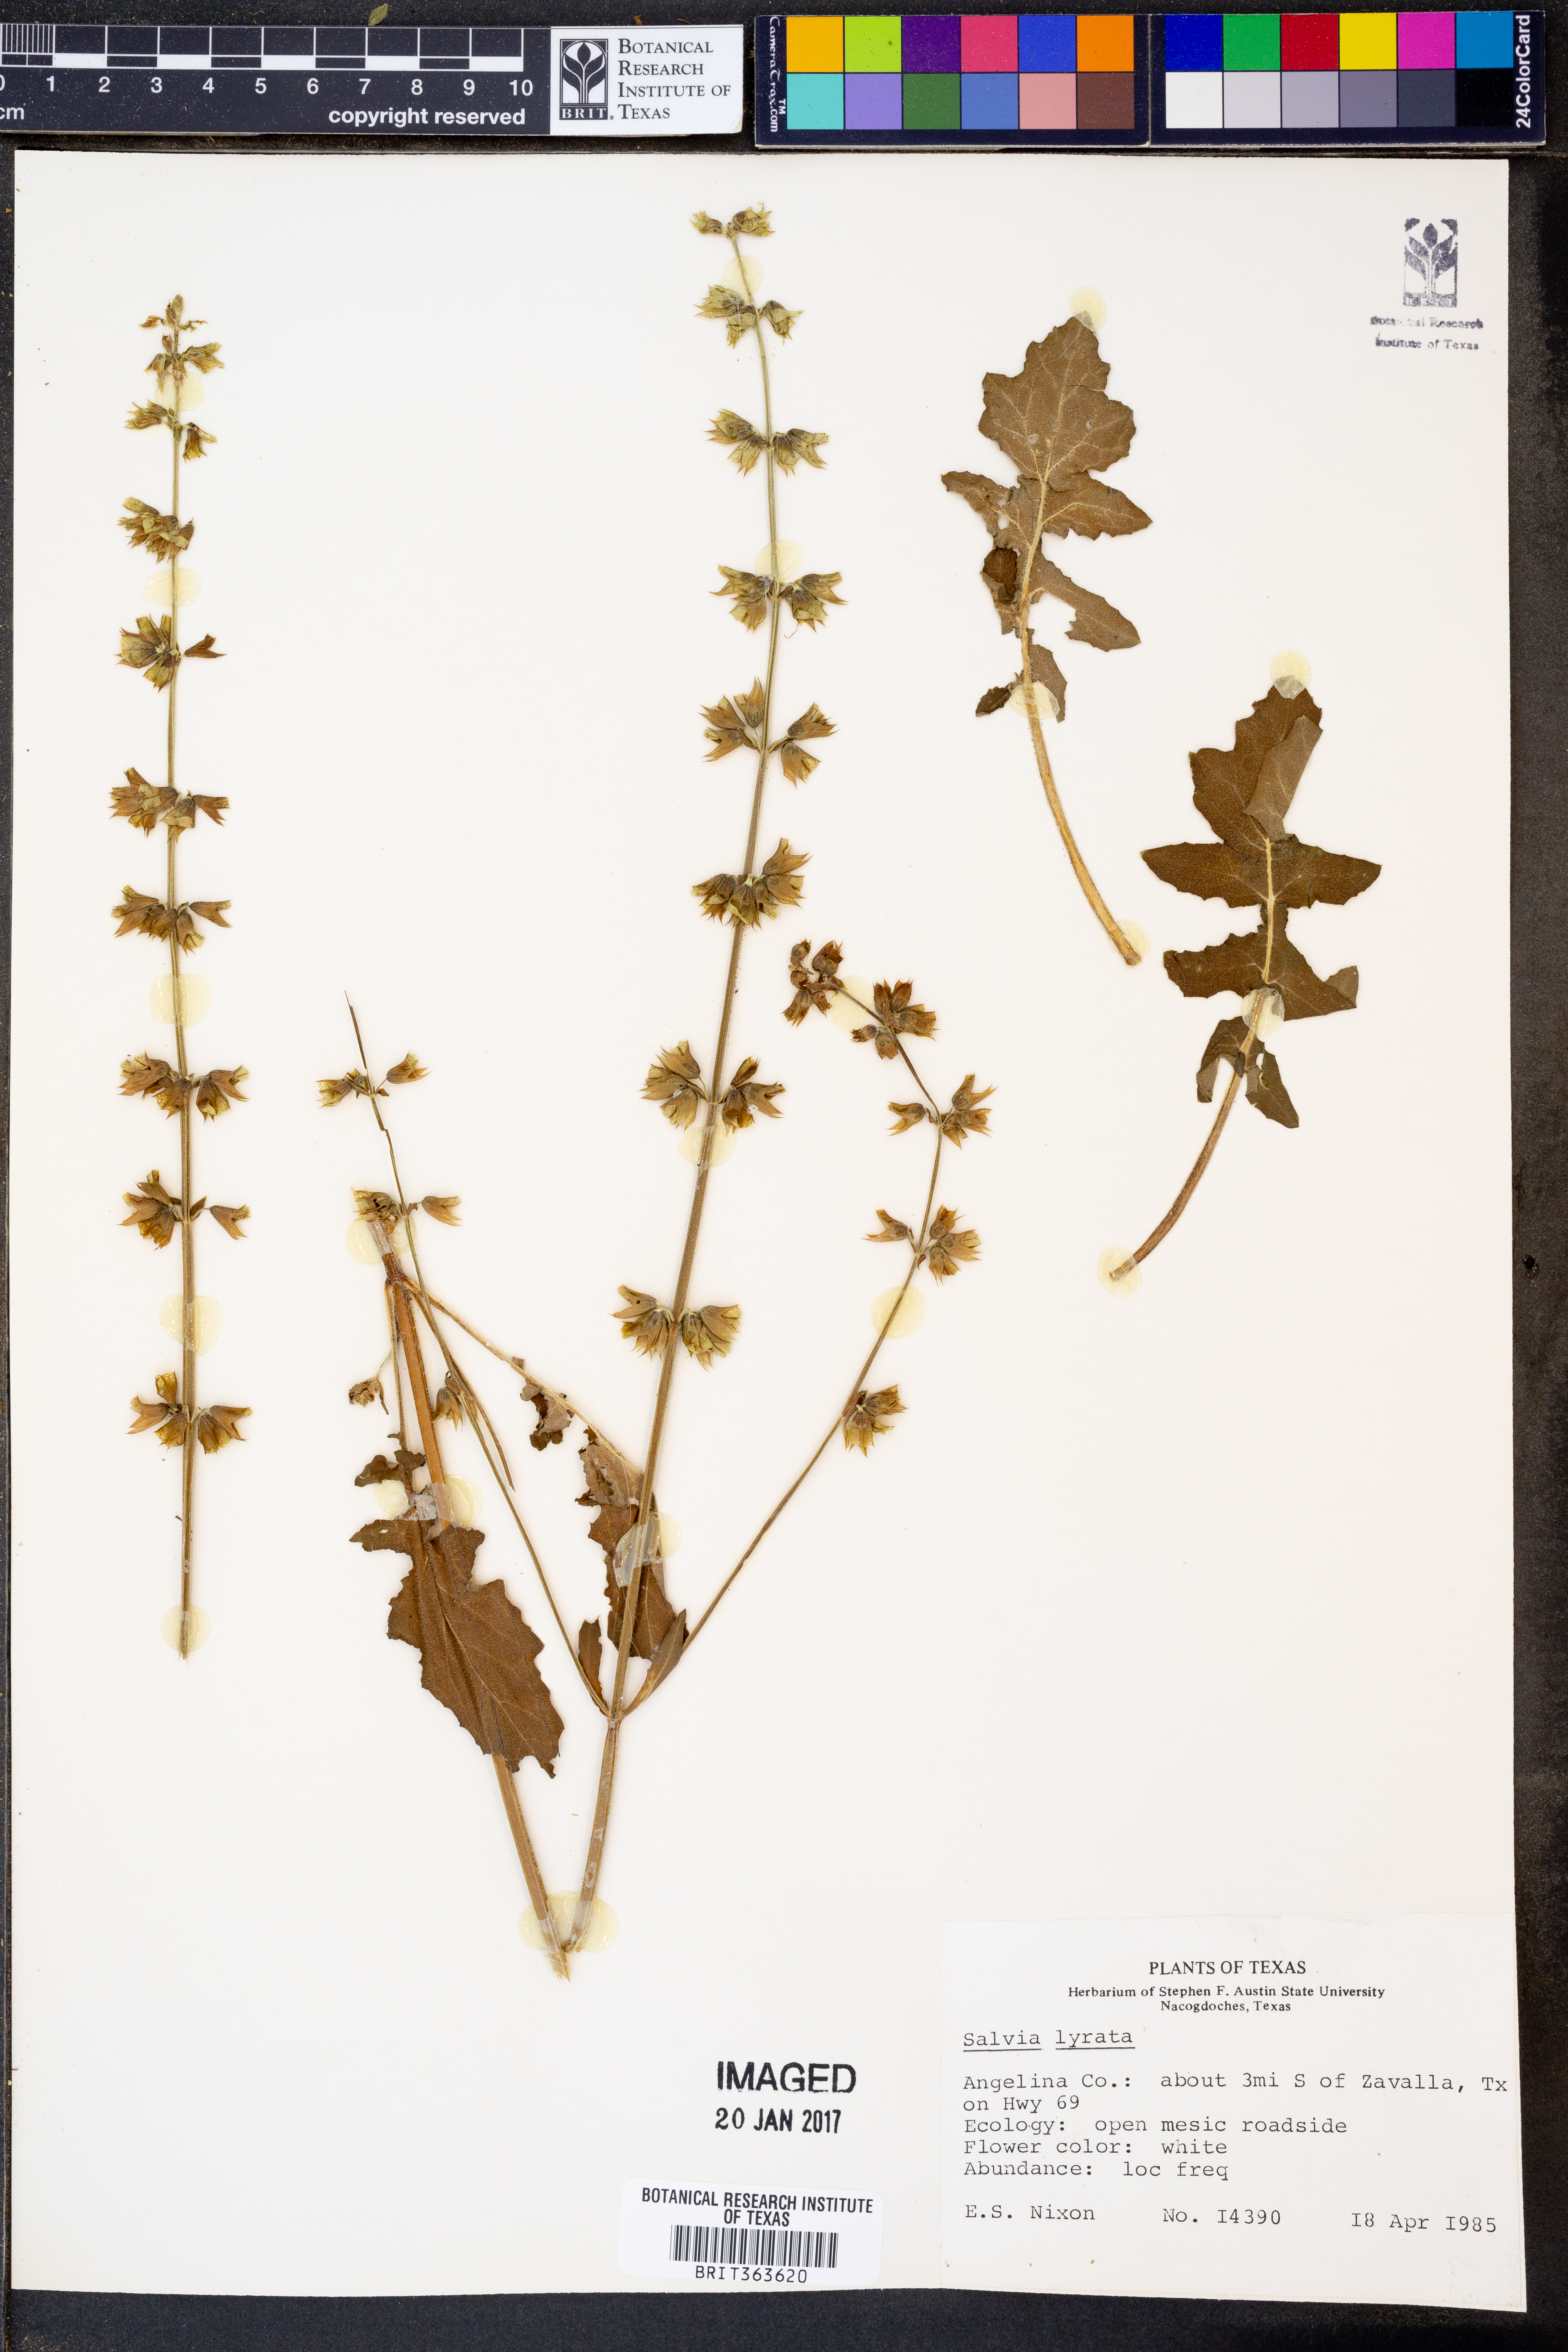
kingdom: Plantae
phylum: Tracheophyta
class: Magnoliopsida
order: Lamiales
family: Lamiaceae
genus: Salvia
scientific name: Salvia lyrata
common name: Cancerweed
